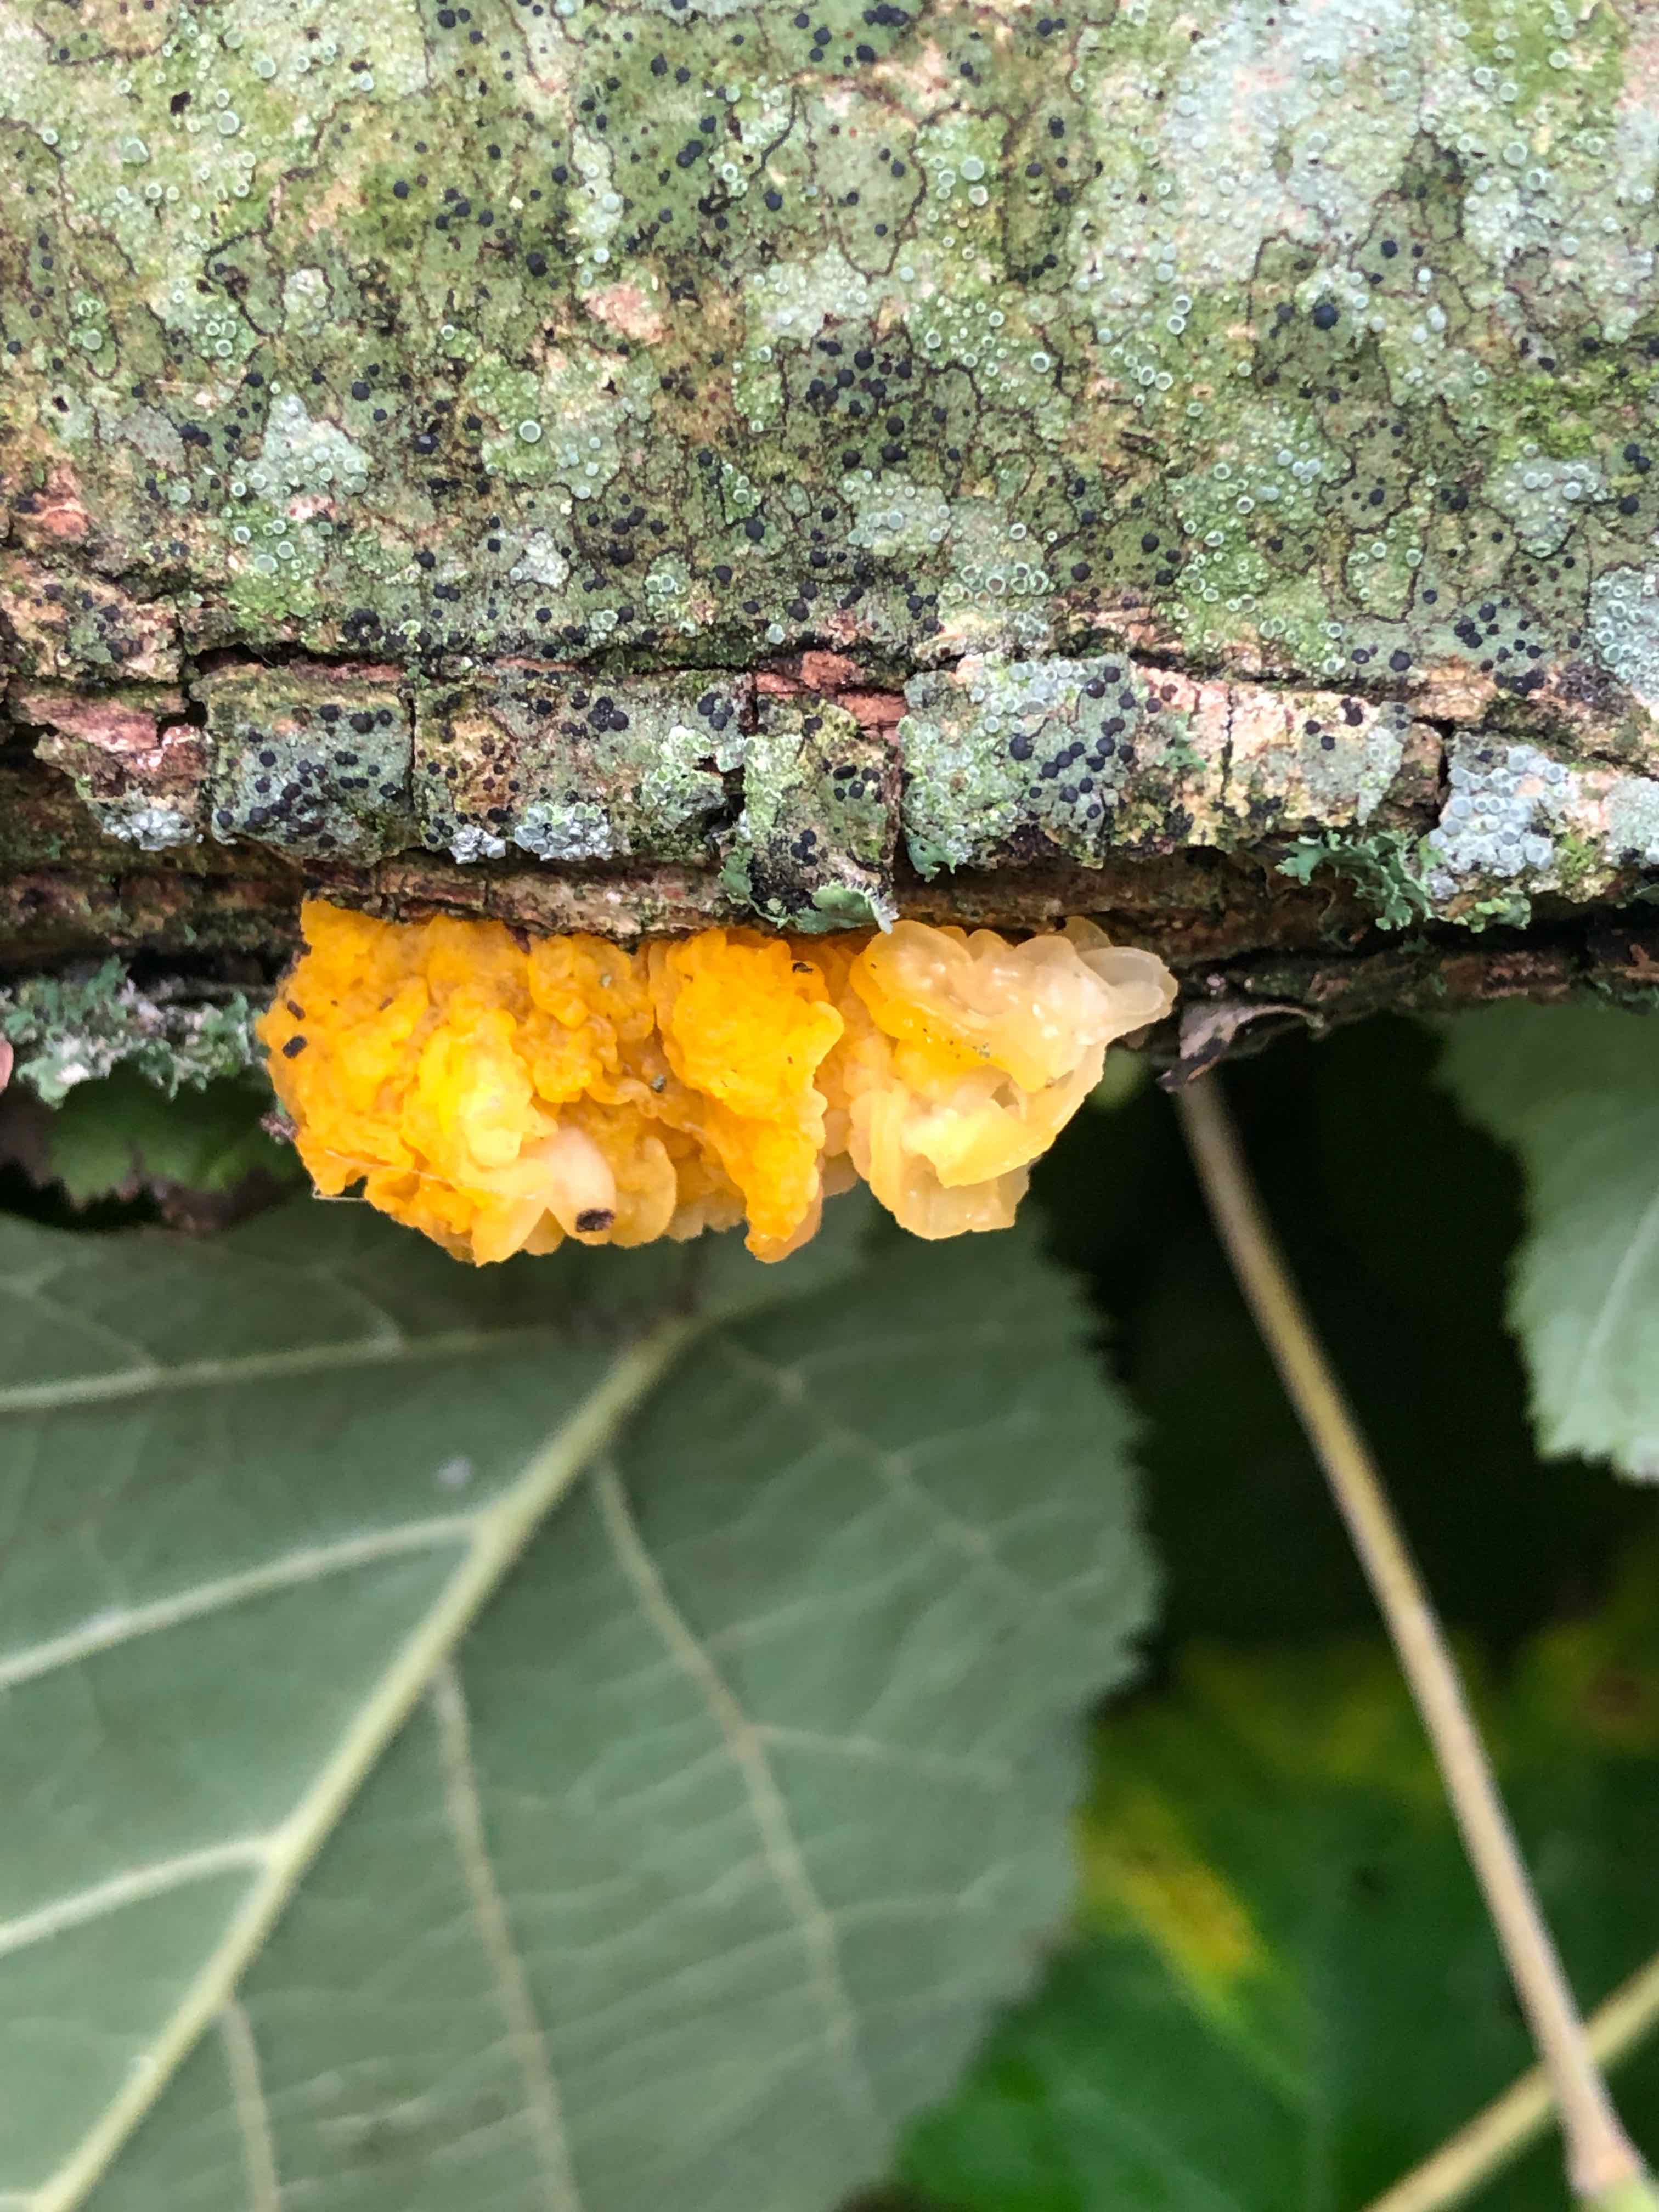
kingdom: Fungi
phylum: Basidiomycota
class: Tremellomycetes
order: Tremellales
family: Tremellaceae
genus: Tremella
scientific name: Tremella mesenterica
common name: gul bævresvamp
